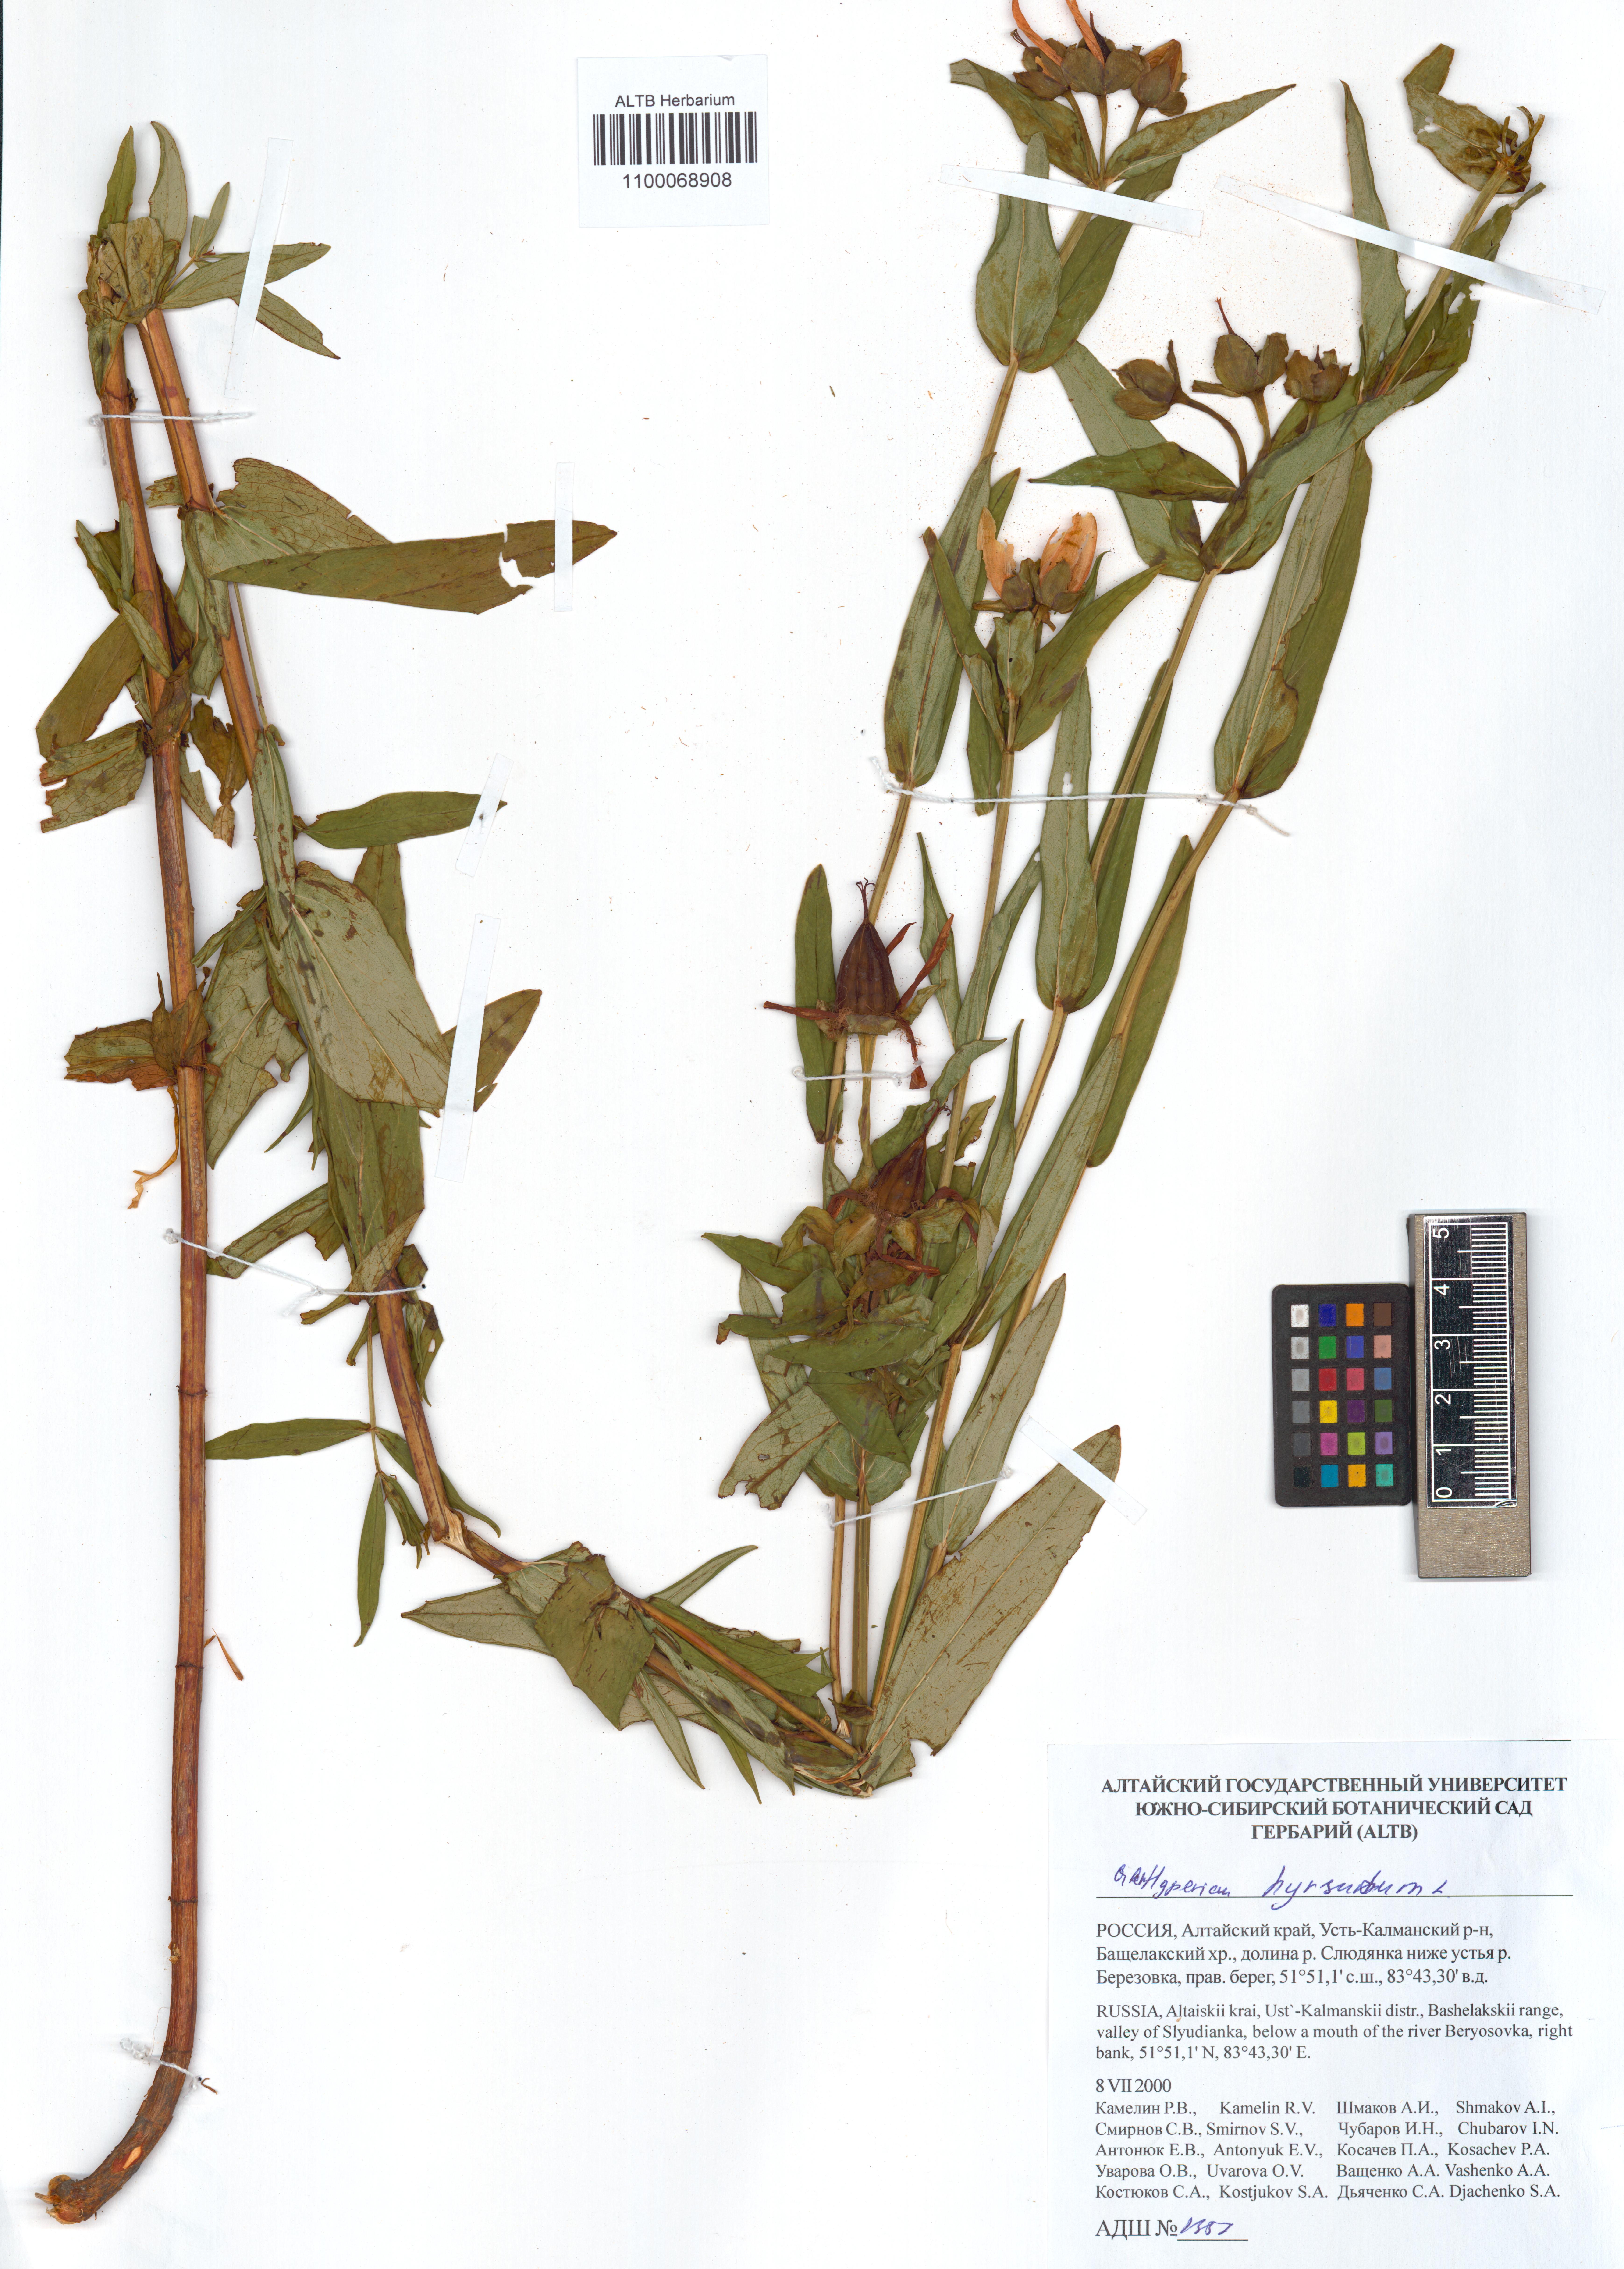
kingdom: Plantae
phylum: Tracheophyta
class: Magnoliopsida
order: Malpighiales
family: Hypericaceae
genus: Hypericum
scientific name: Hypericum hirsutum
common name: Hairy st. john's-wort
